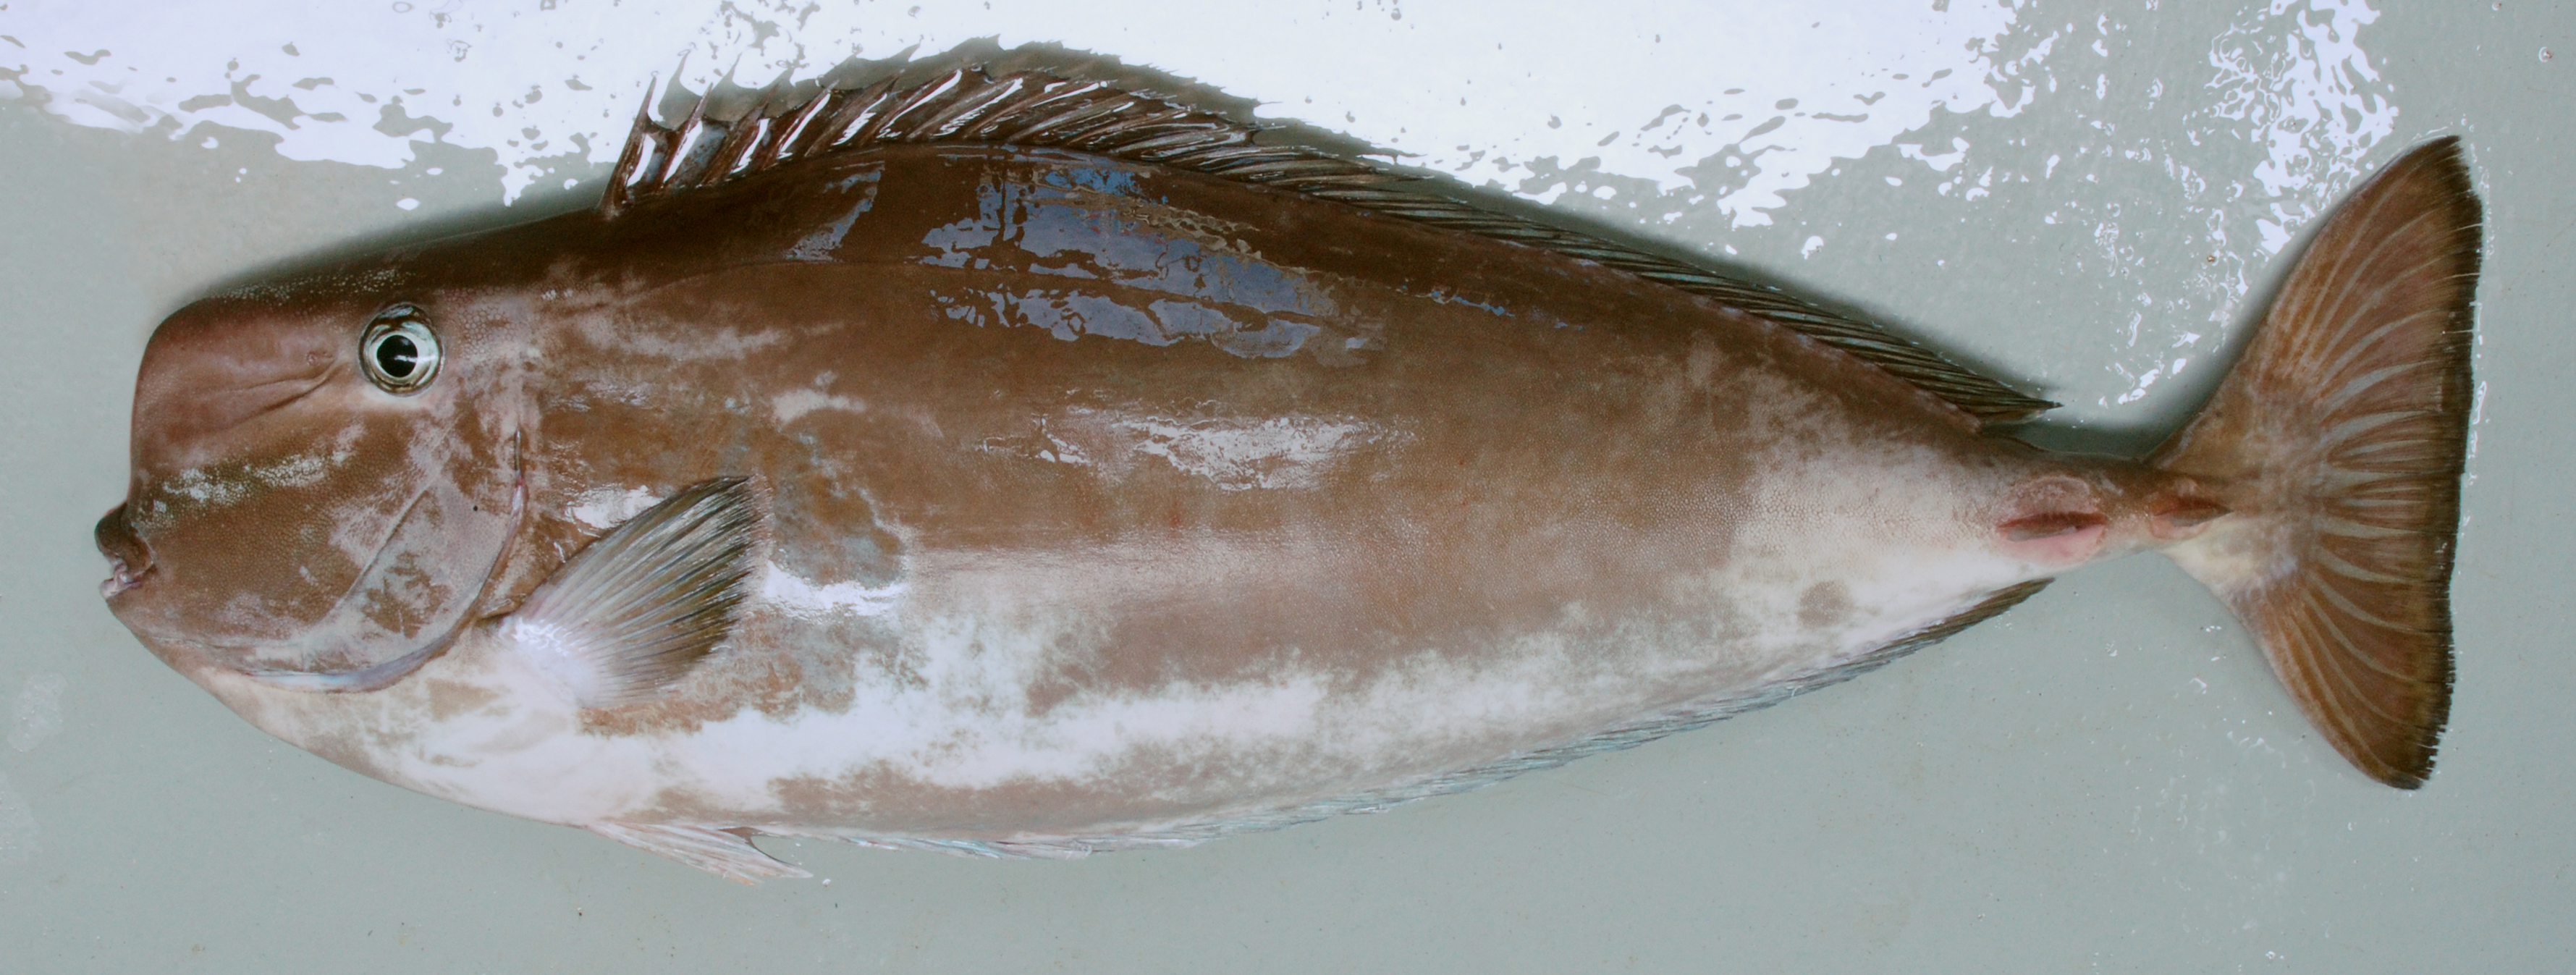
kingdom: Animalia
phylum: Chordata
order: Perciformes
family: Acanthuridae
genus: Naso
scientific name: Naso mcdadei
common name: Squarenose unicornfish
